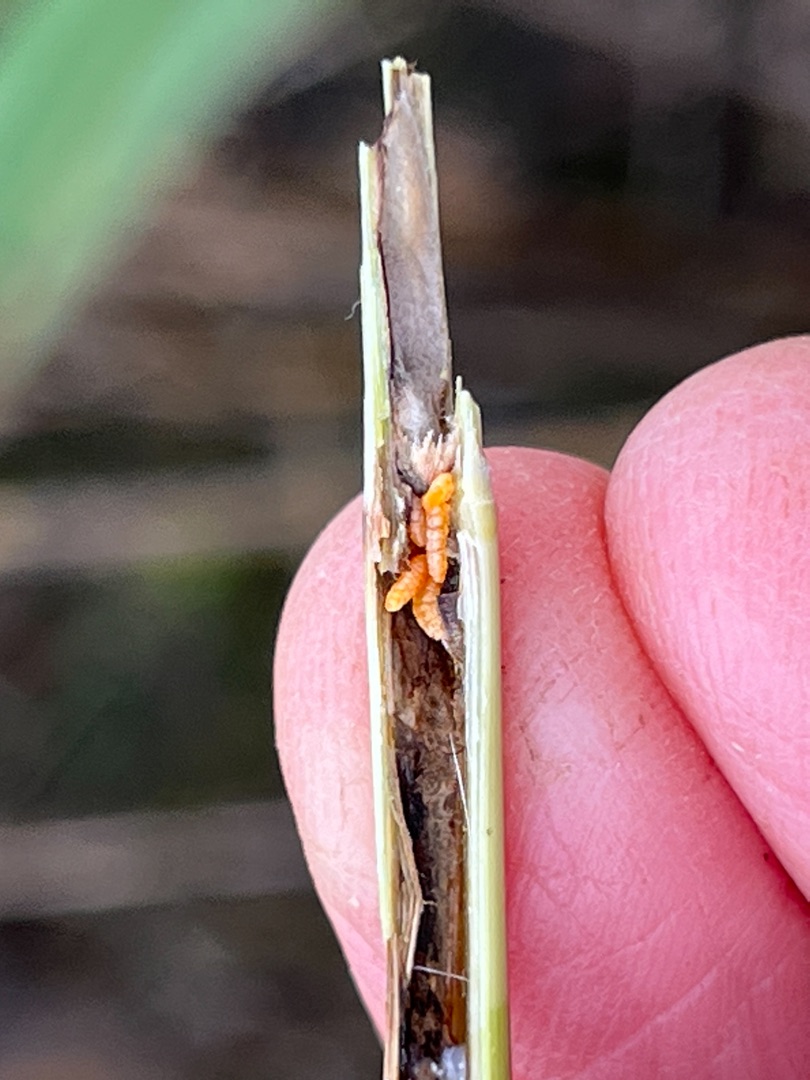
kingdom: Animalia
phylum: Arthropoda
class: Insecta
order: Diptera
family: Cecidomyiidae
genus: Lasioptera
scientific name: Lasioptera hungarica
